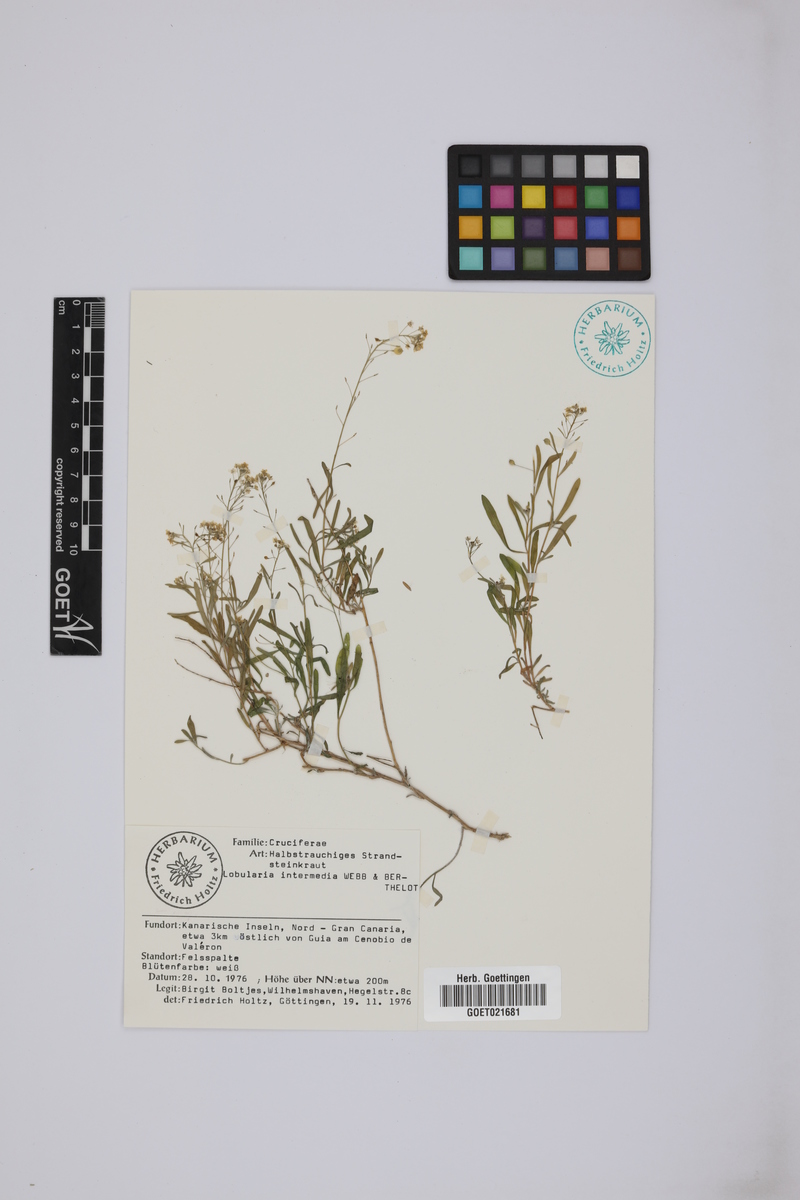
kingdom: Plantae
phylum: Tracheophyta
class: Magnoliopsida
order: Brassicales
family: Brassicaceae
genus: Lobularia
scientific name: Lobularia canariensis
